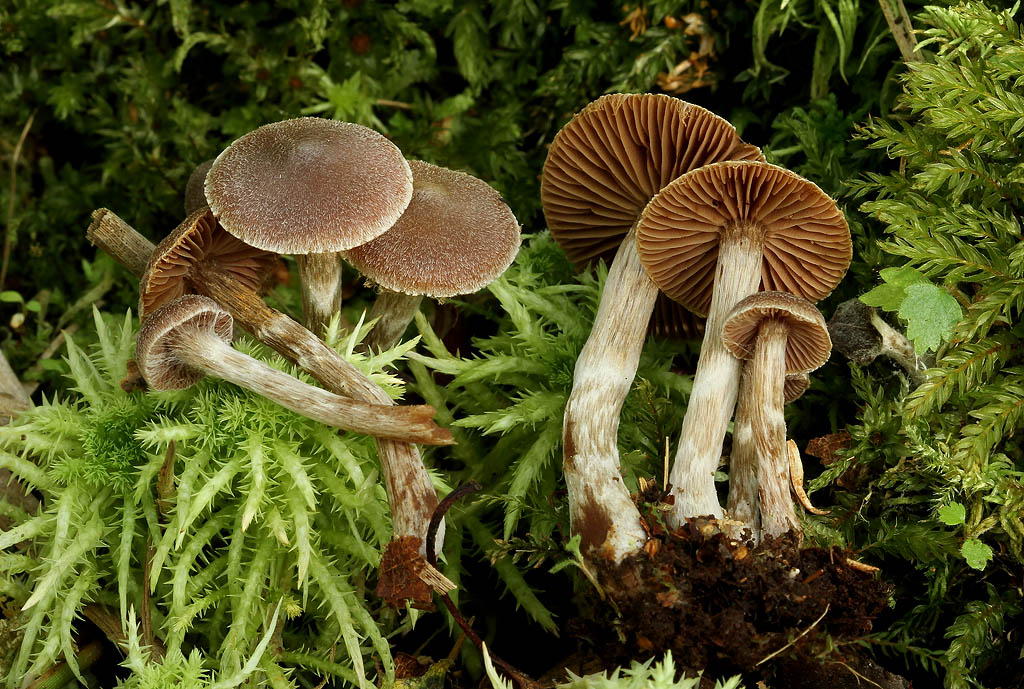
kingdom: Fungi
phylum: Basidiomycota
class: Agaricomycetes
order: Agaricales
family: Cortinariaceae
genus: Cortinarius
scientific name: Cortinarius
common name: pelargonie-slørhat
